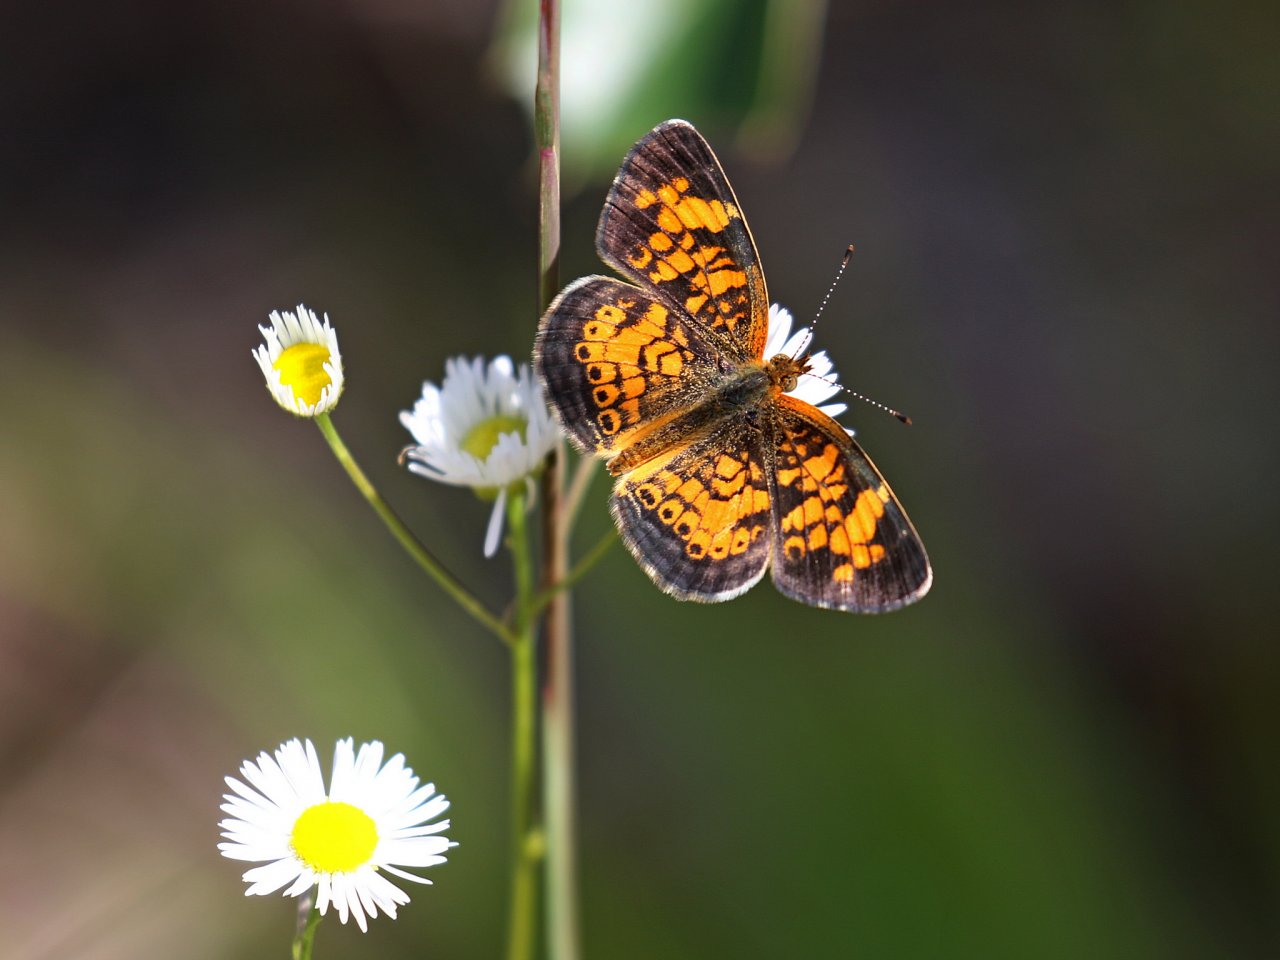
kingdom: Animalia
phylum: Arthropoda
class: Insecta
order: Lepidoptera
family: Nymphalidae
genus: Phyciodes
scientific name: Phyciodes tharos
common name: Pearl Crescent
